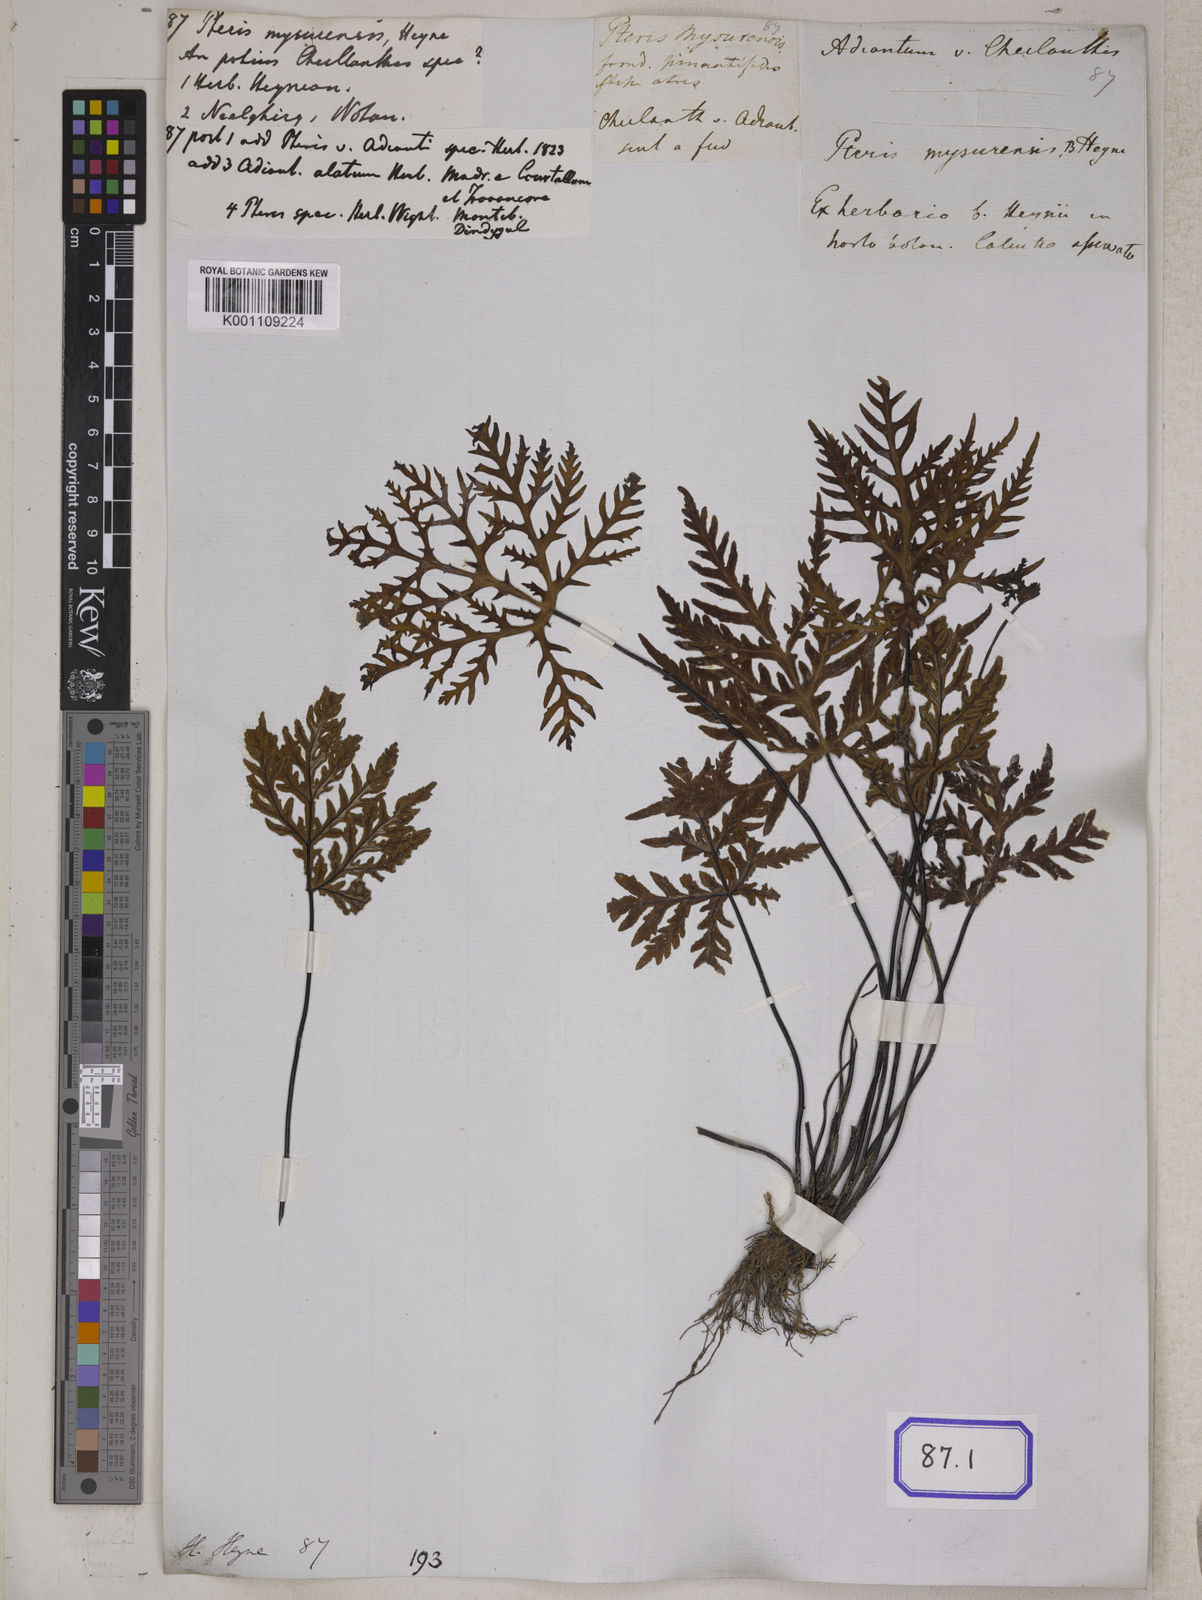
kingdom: Plantae
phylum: Tracheophyta
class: Polypodiopsida
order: Polypodiales
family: Pteridaceae
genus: Doryopteris
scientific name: Doryopteris concolor
